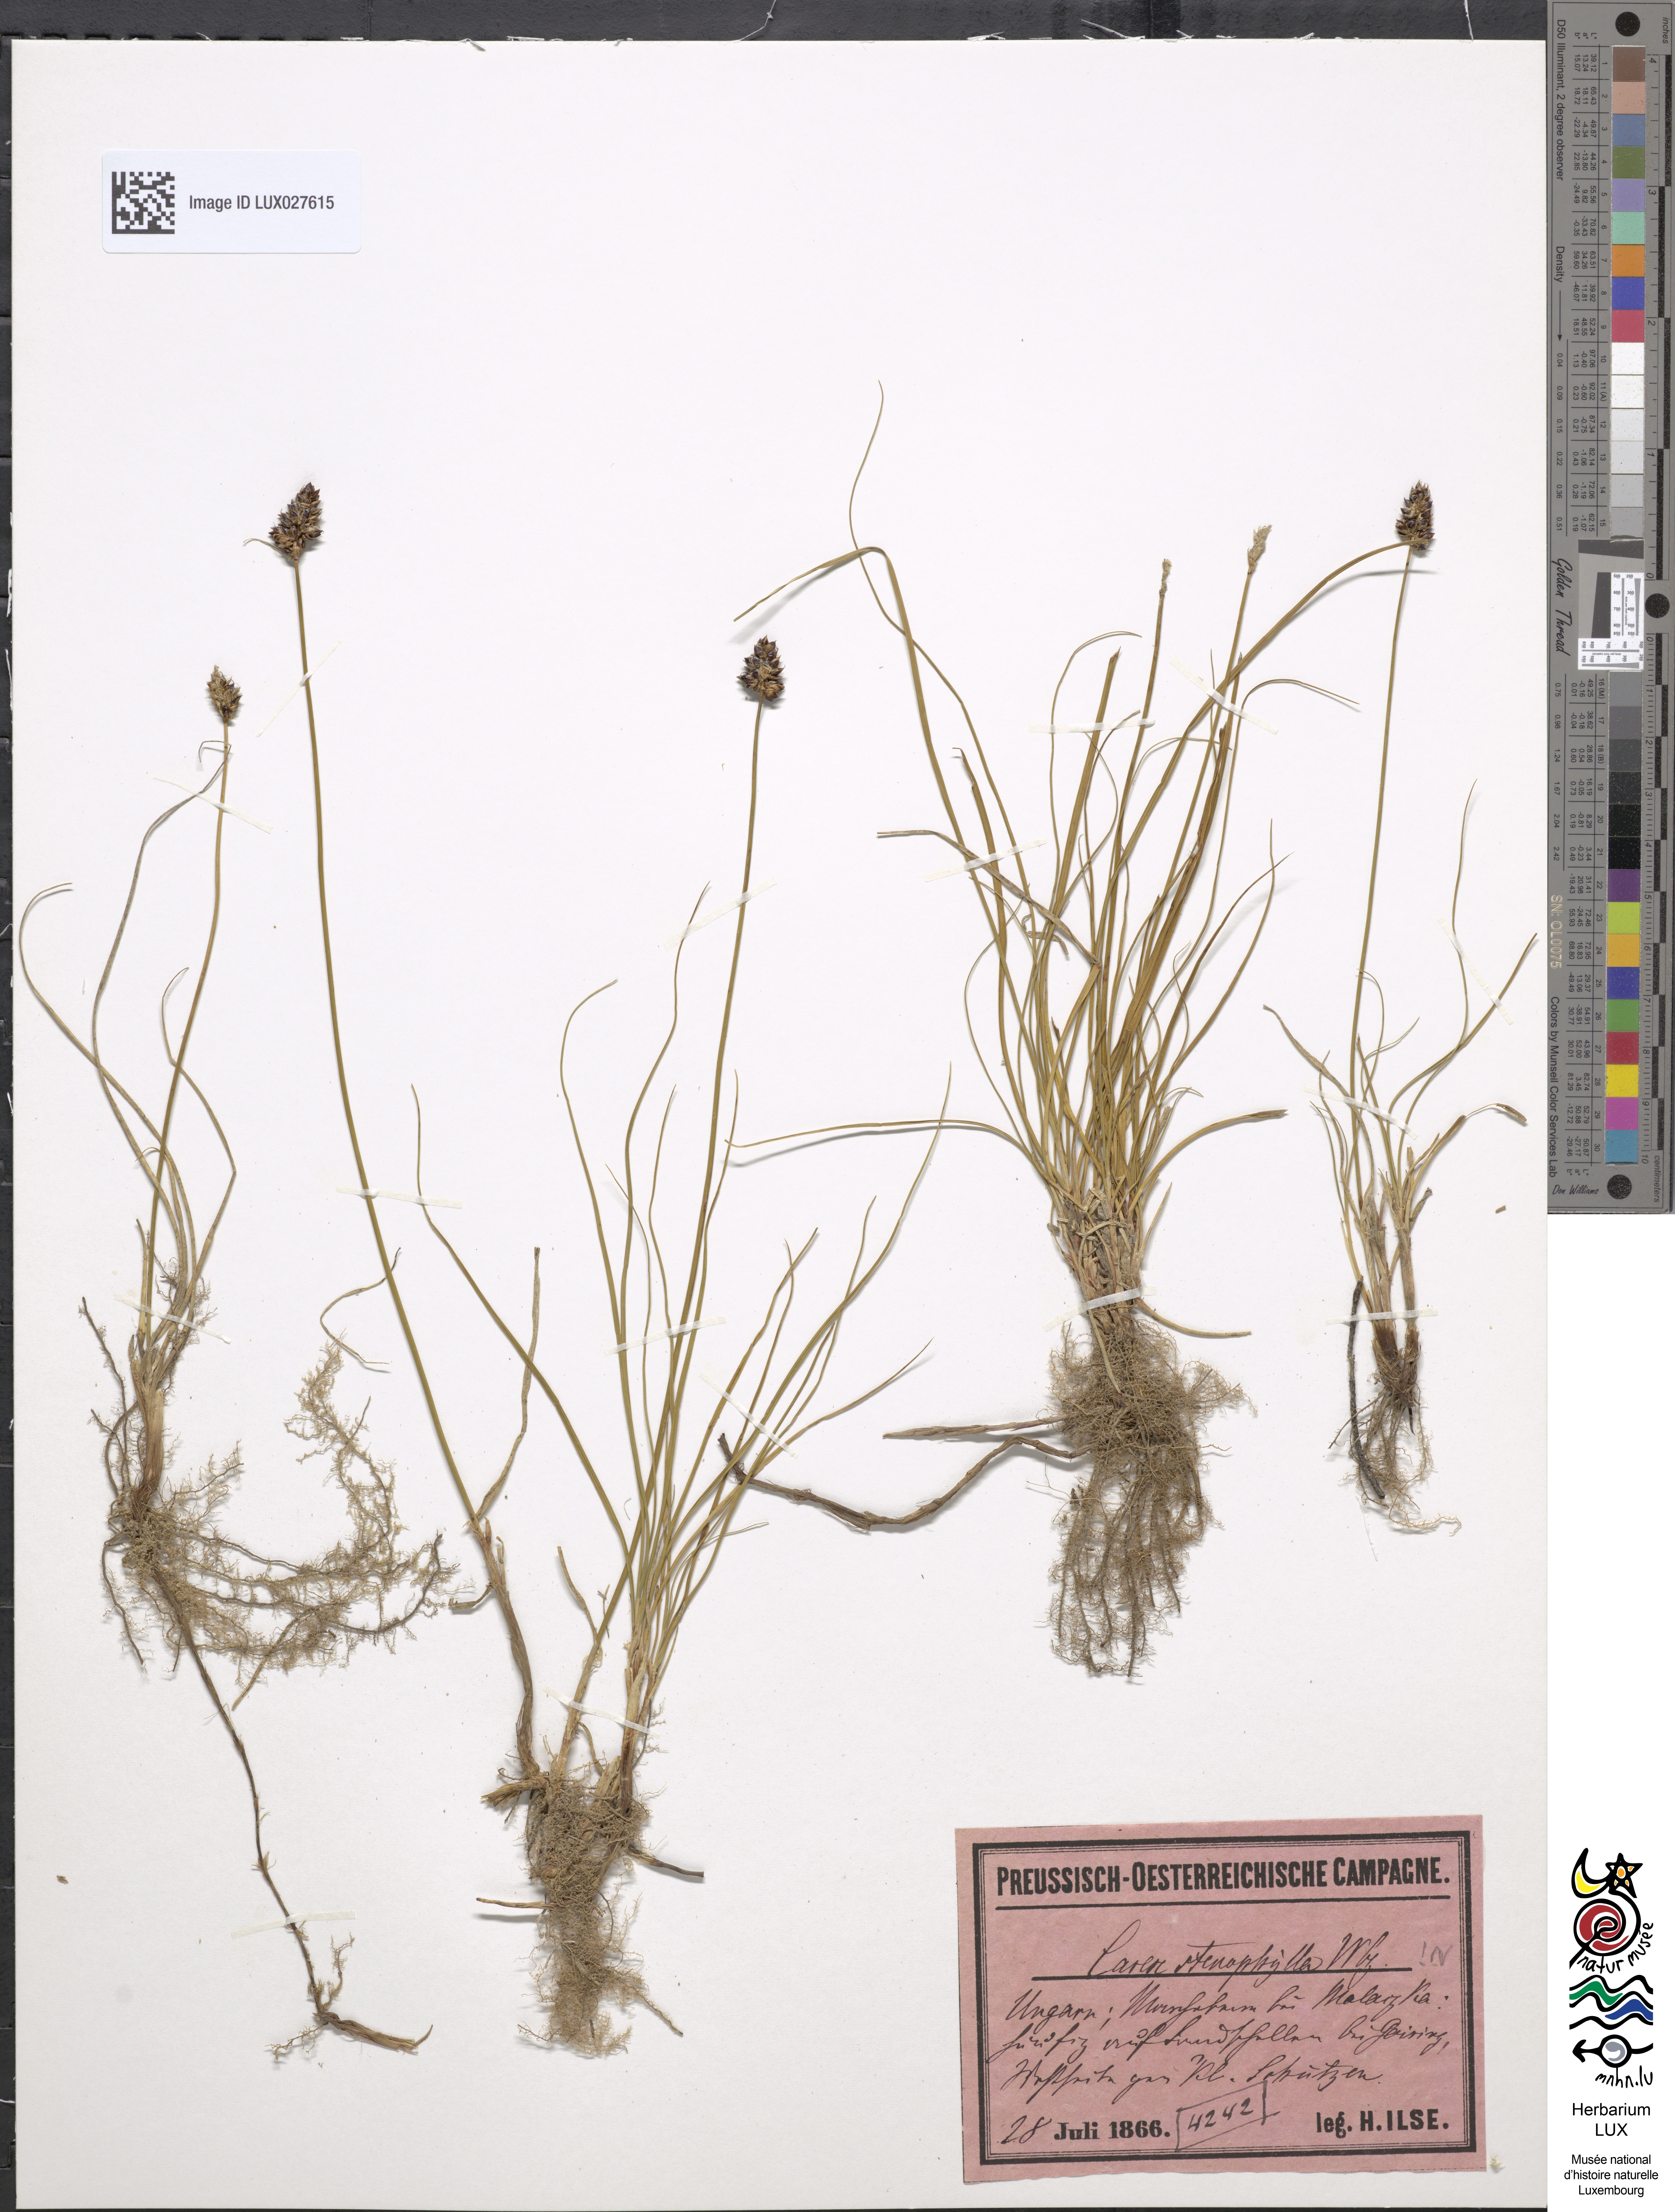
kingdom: Plantae
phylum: Tracheophyta
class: Liliopsida
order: Poales
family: Cyperaceae
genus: Carex
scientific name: Carex stenophylla
